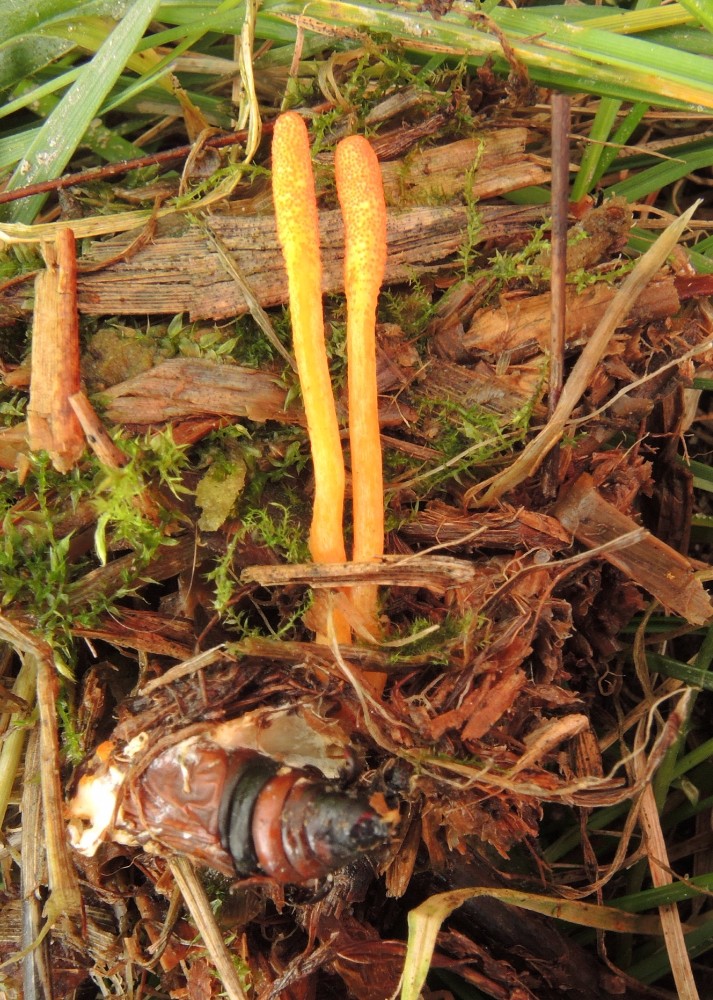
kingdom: Fungi
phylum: Ascomycota
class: Sordariomycetes
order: Hypocreales
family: Cordycipitaceae
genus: Cordyceps
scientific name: Cordyceps militaris
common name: puppe-snyltekølle
